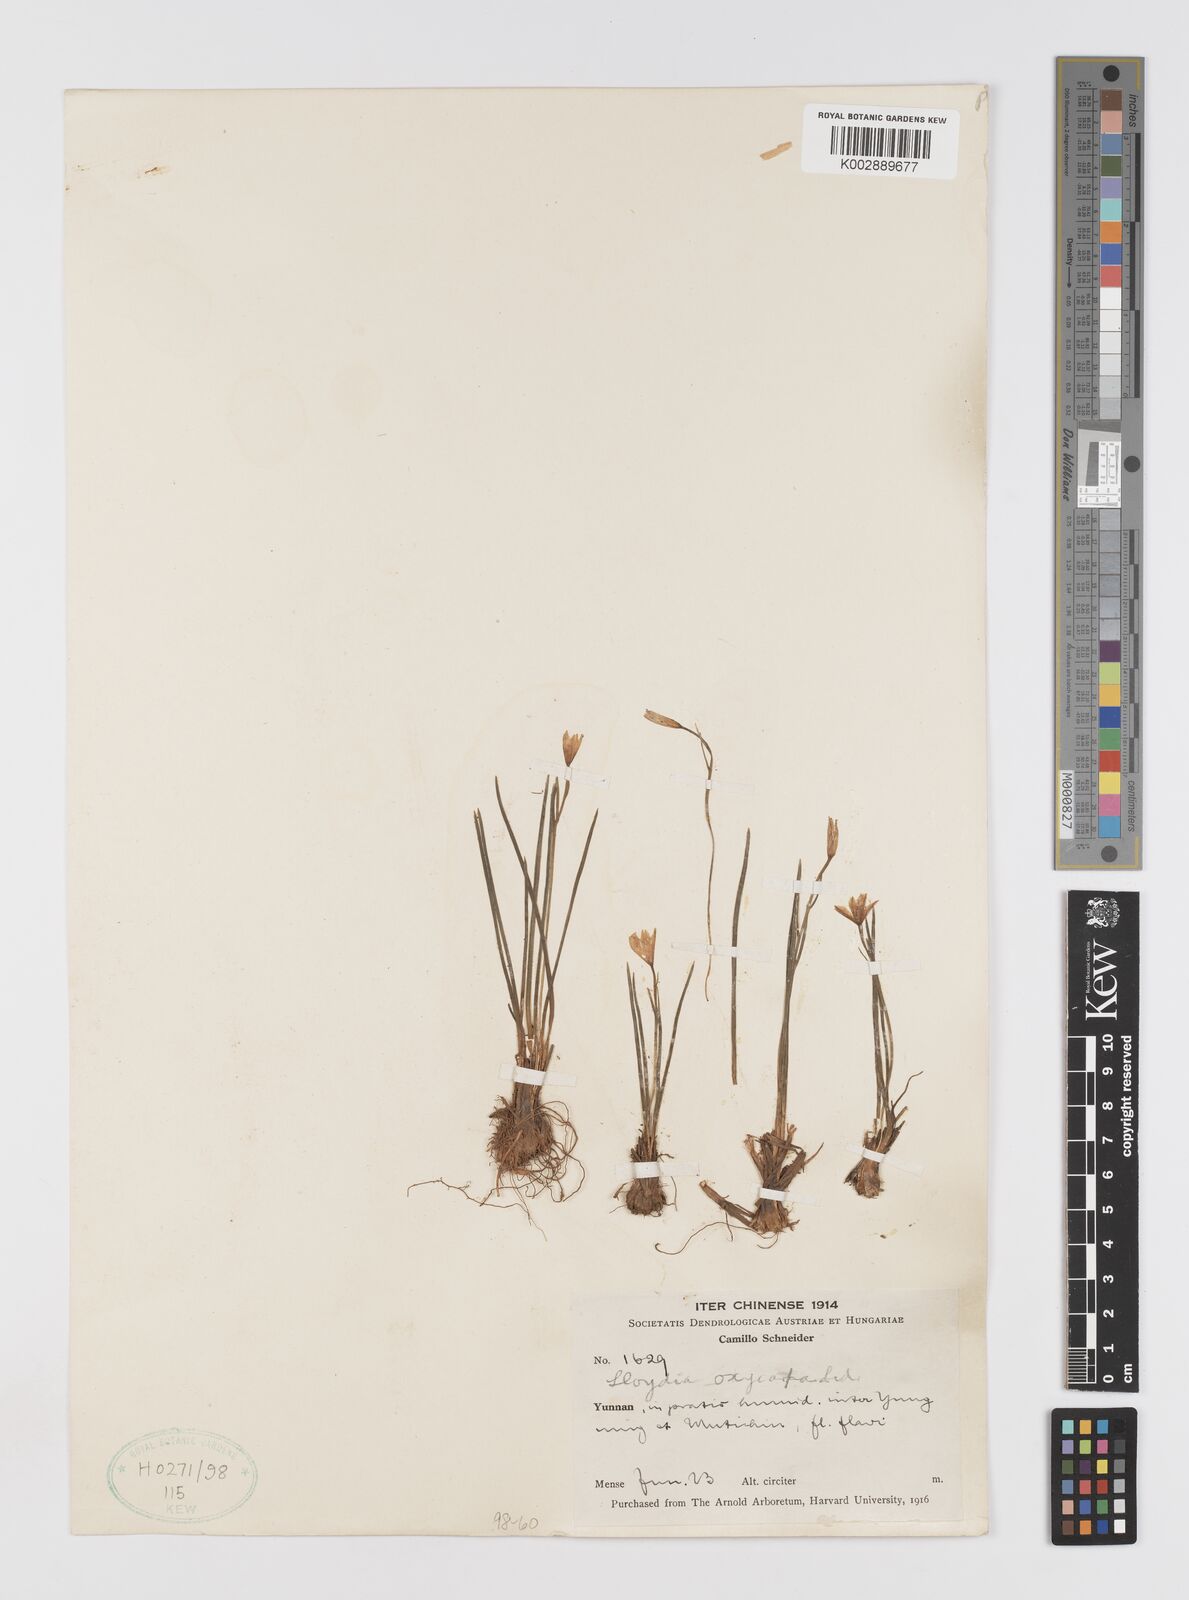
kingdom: Plantae
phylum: Tracheophyta
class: Liliopsida
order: Liliales
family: Liliaceae
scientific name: Liliaceae
